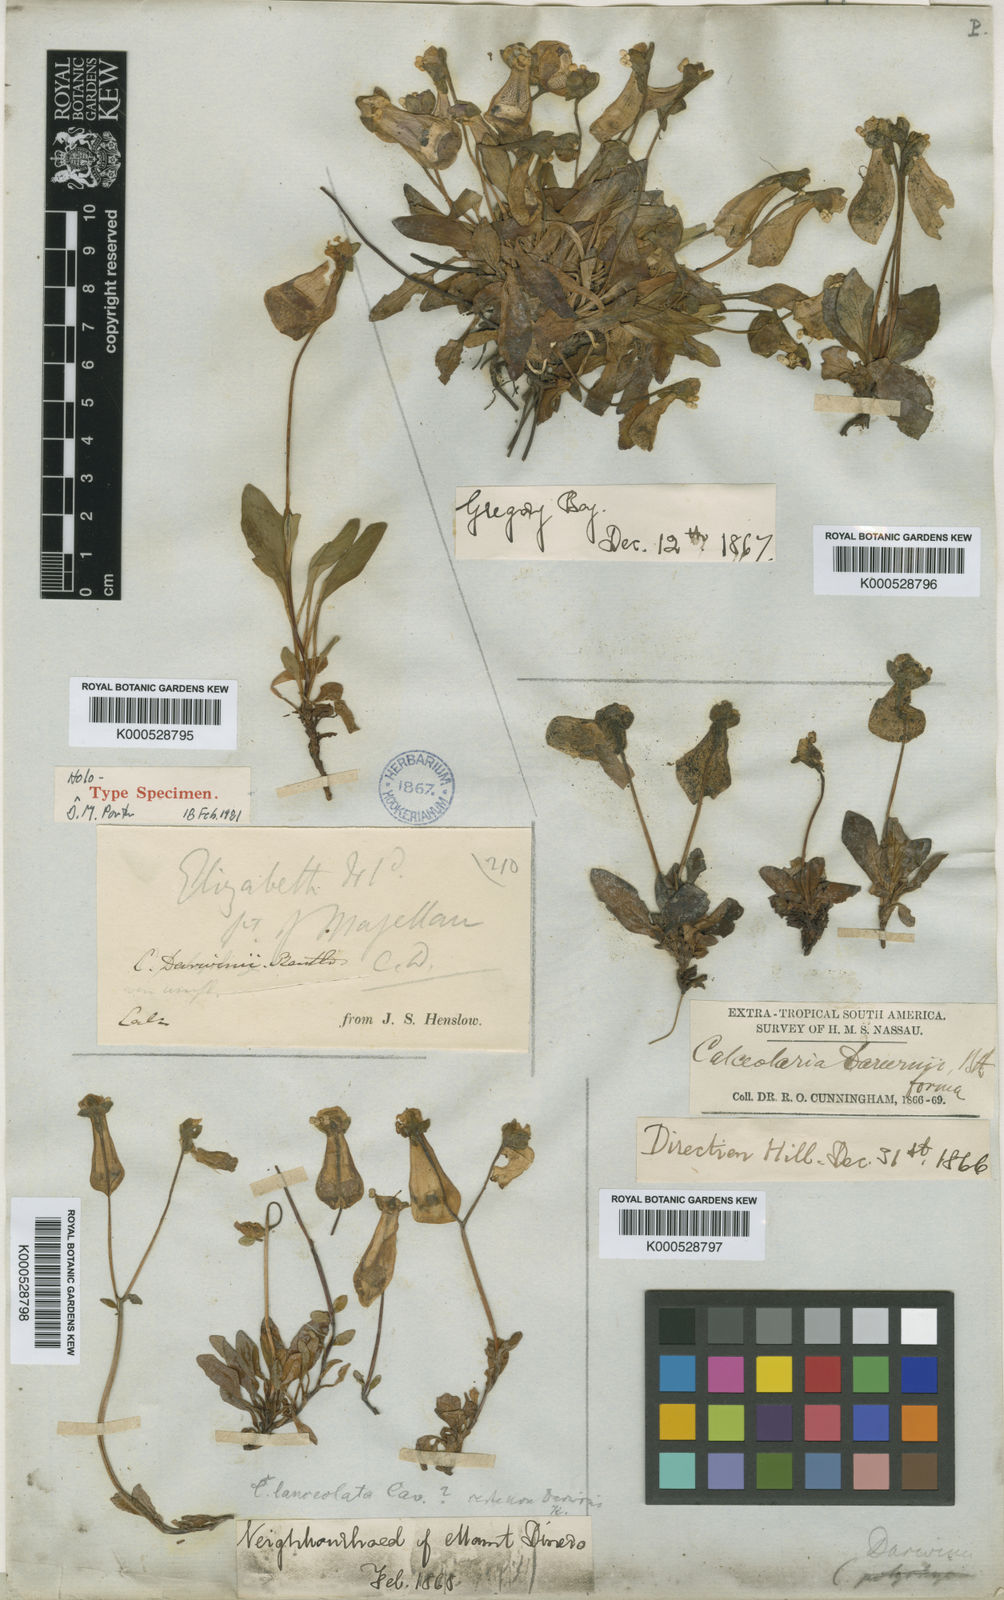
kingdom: Plantae
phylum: Tracheophyta
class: Magnoliopsida
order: Lamiales
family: Calceolariaceae
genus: Calceolaria
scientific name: Calceolaria uniflora
